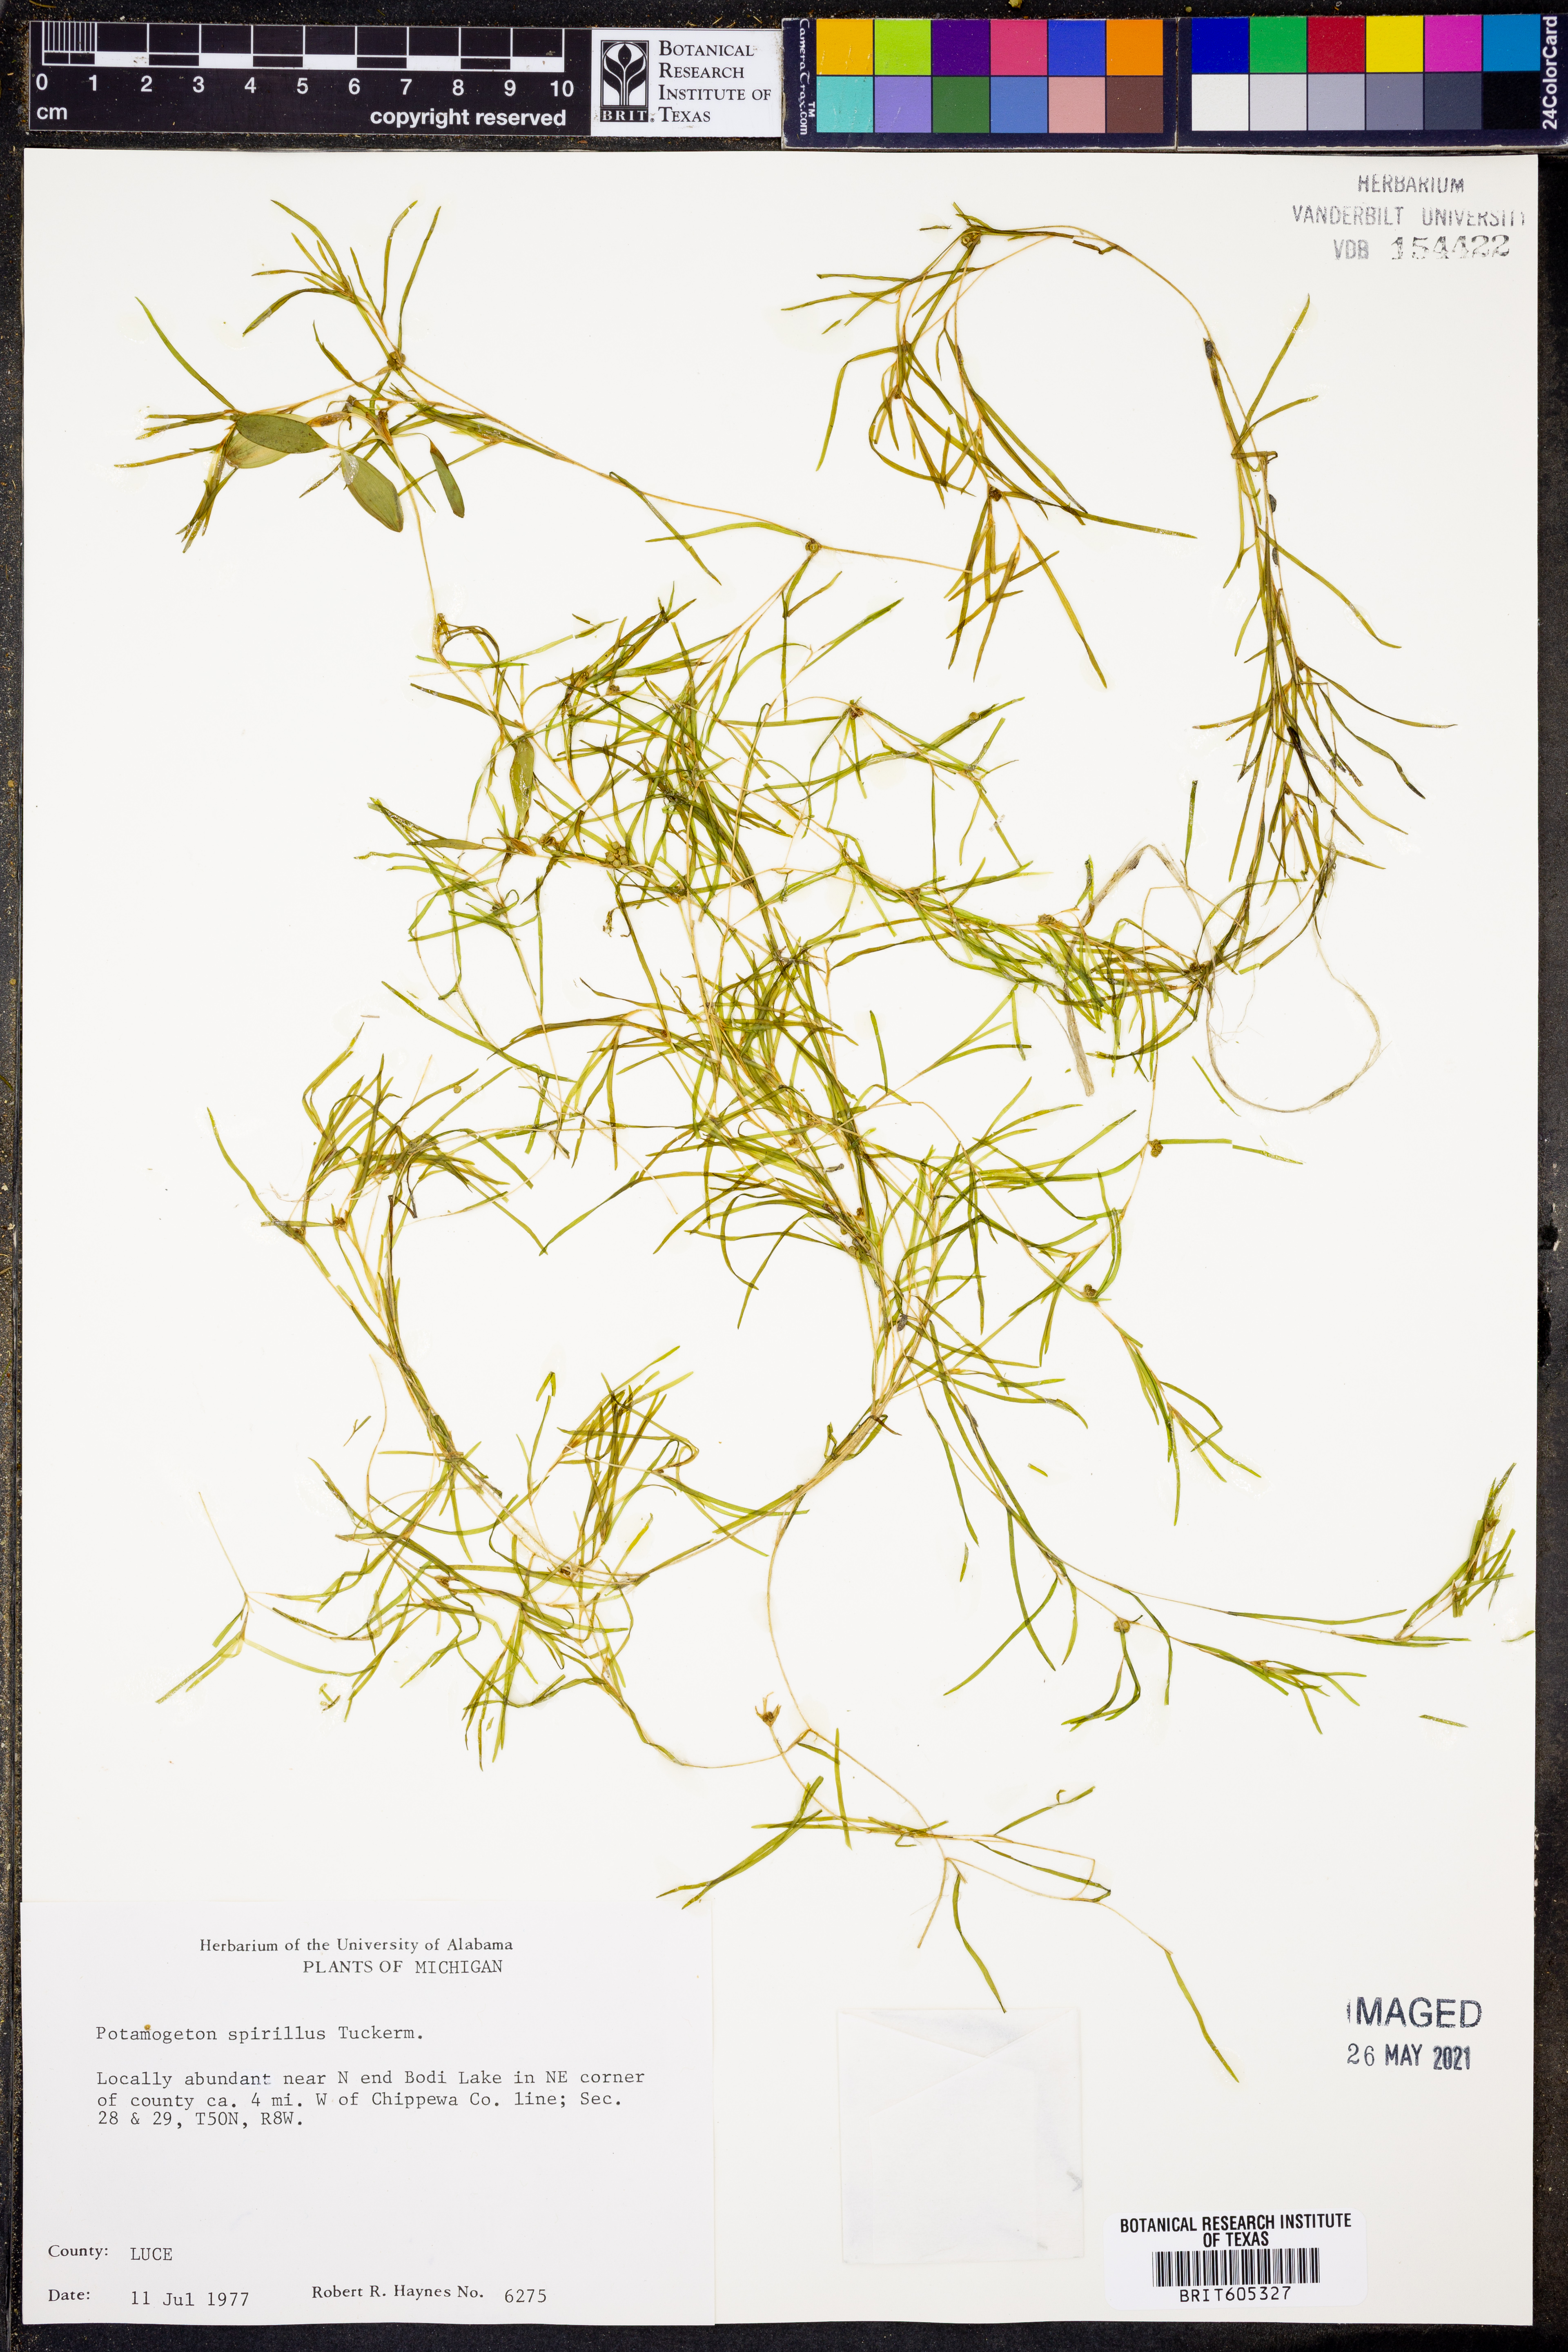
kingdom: Plantae
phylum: Tracheophyta
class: Liliopsida
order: Alismatales
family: Potamogetonaceae
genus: Potamogeton
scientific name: Potamogeton spirillus
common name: Northern snail-seed pondweed
